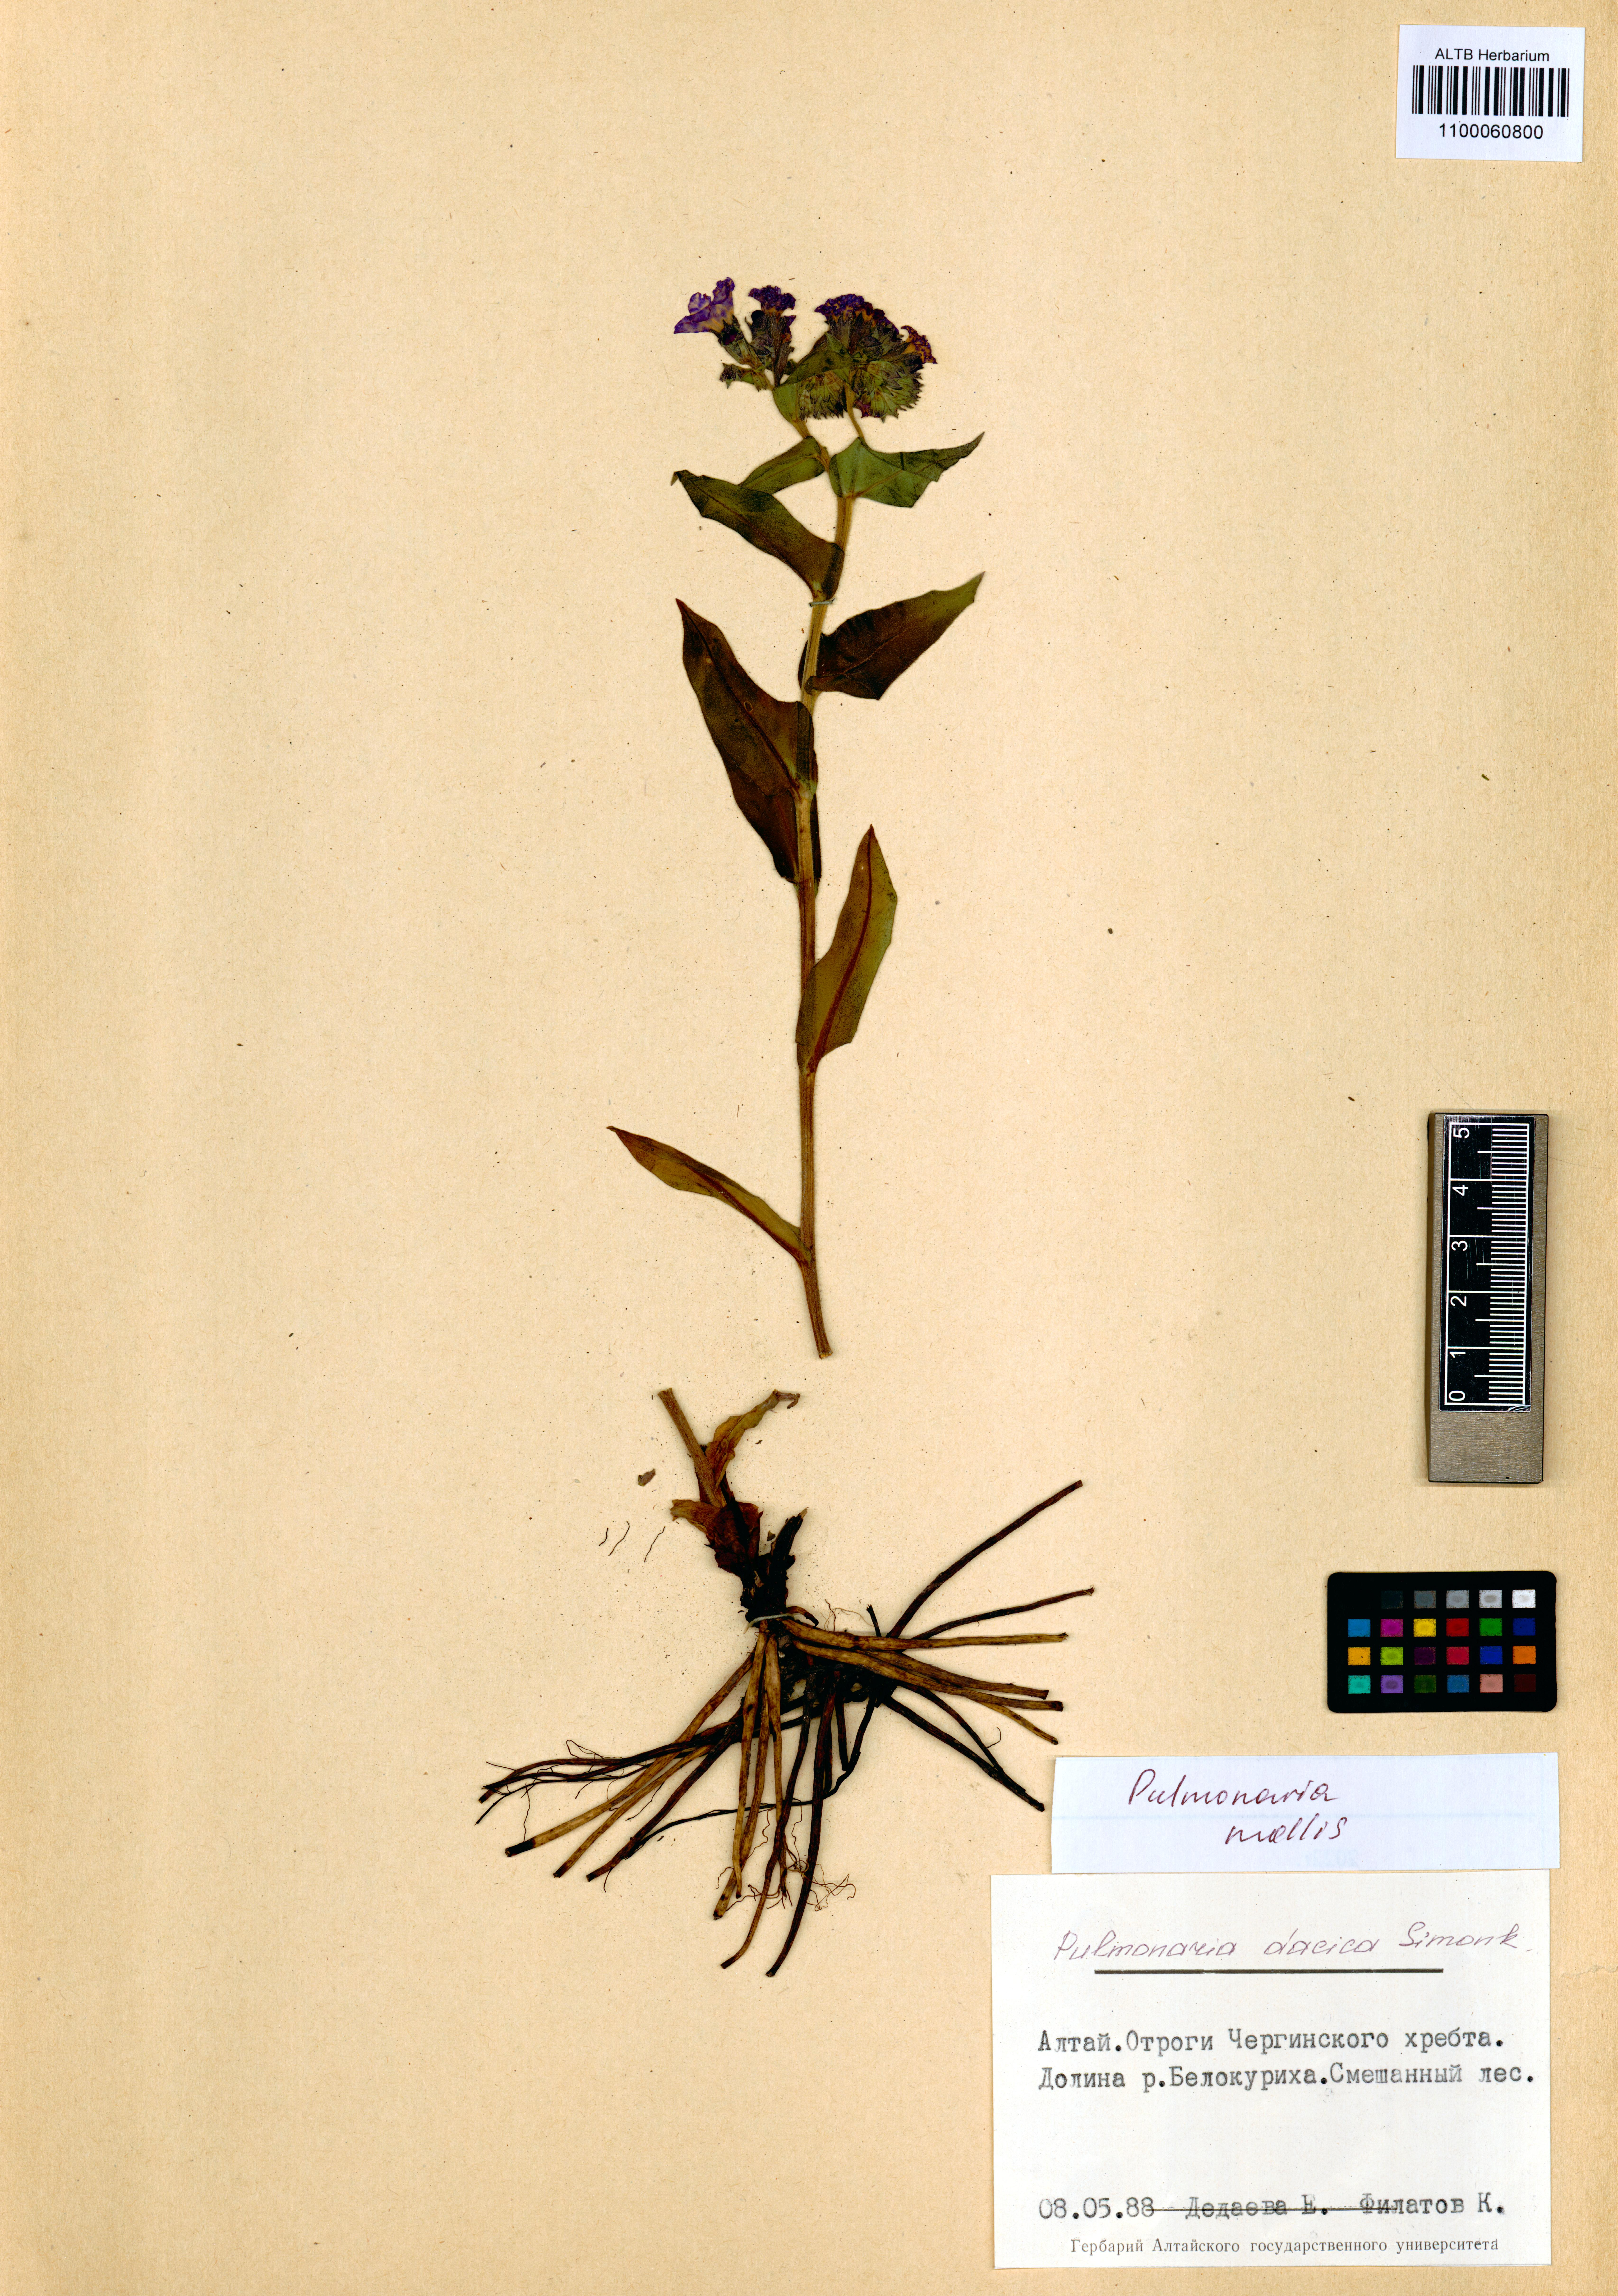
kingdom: Plantae
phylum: Tracheophyta
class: Magnoliopsida
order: Boraginales
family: Boraginaceae
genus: Pulmonaria
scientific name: Pulmonaria mollis
